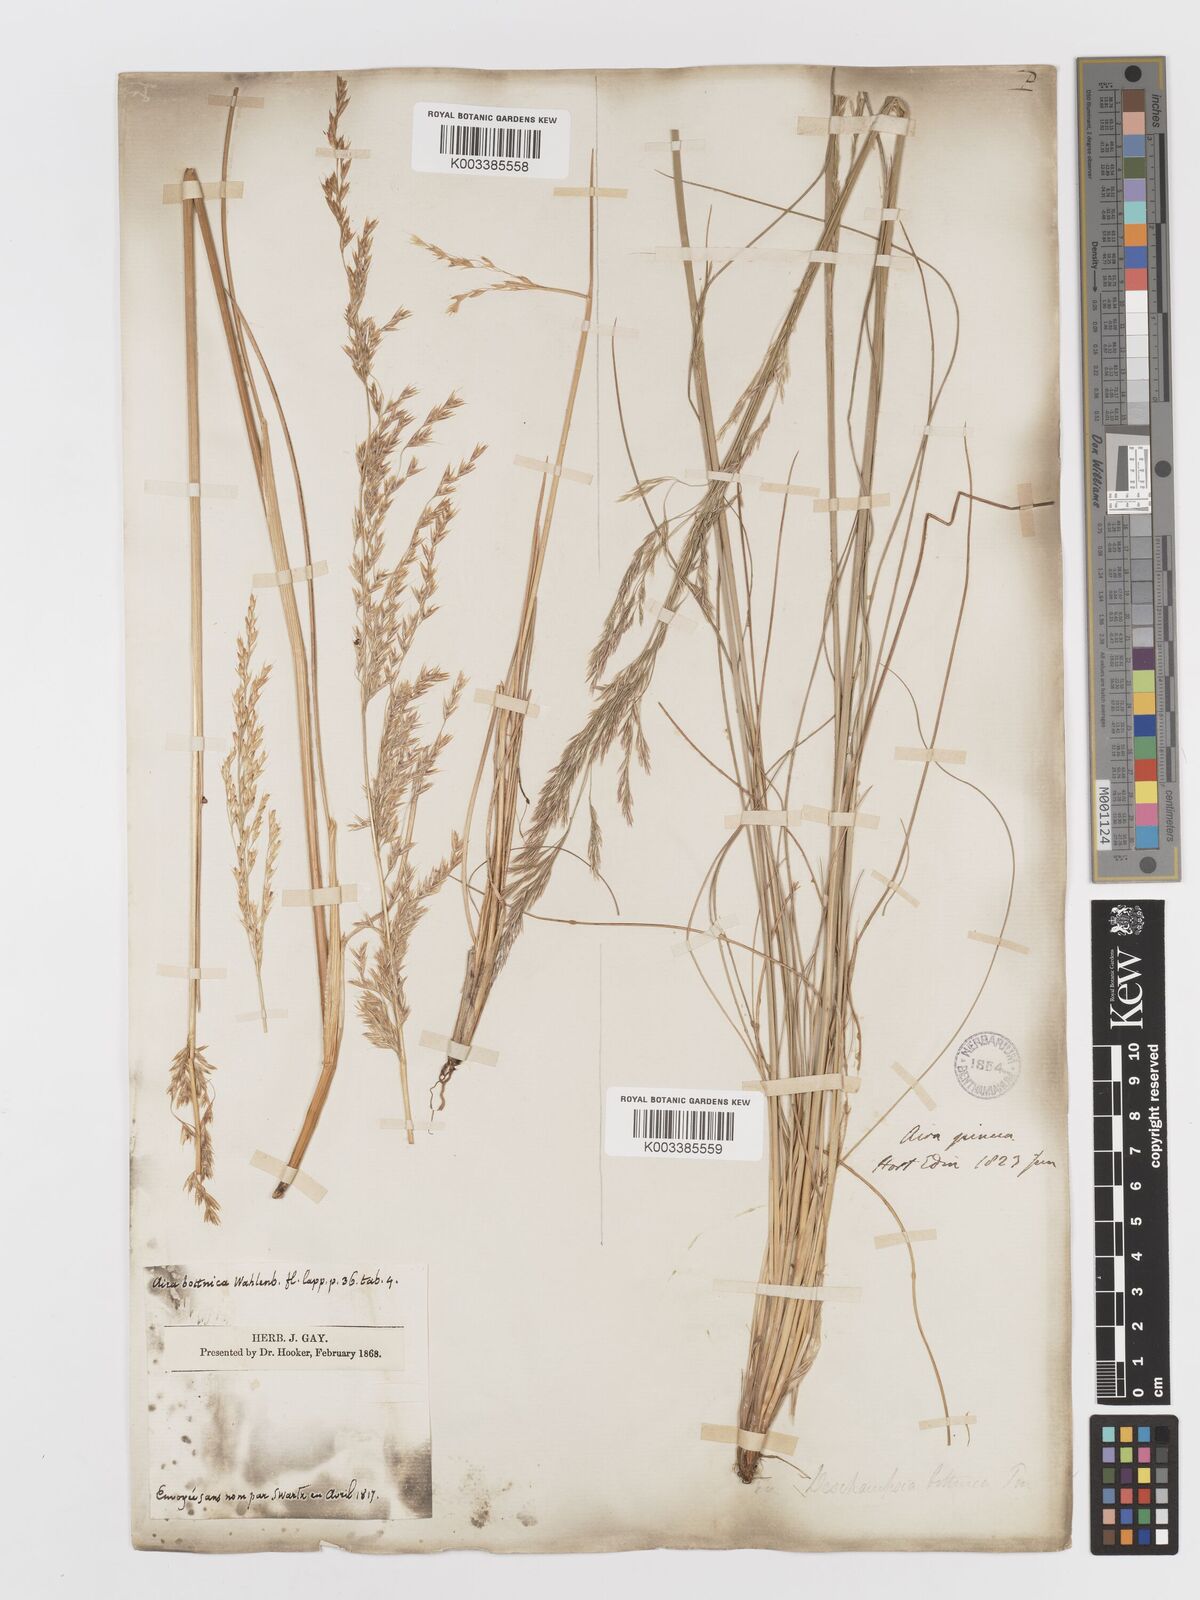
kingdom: Plantae
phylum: Tracheophyta
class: Liliopsida
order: Poales
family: Poaceae
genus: Deschampsia
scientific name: Deschampsia cespitosa
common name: Tufted hair-grass
